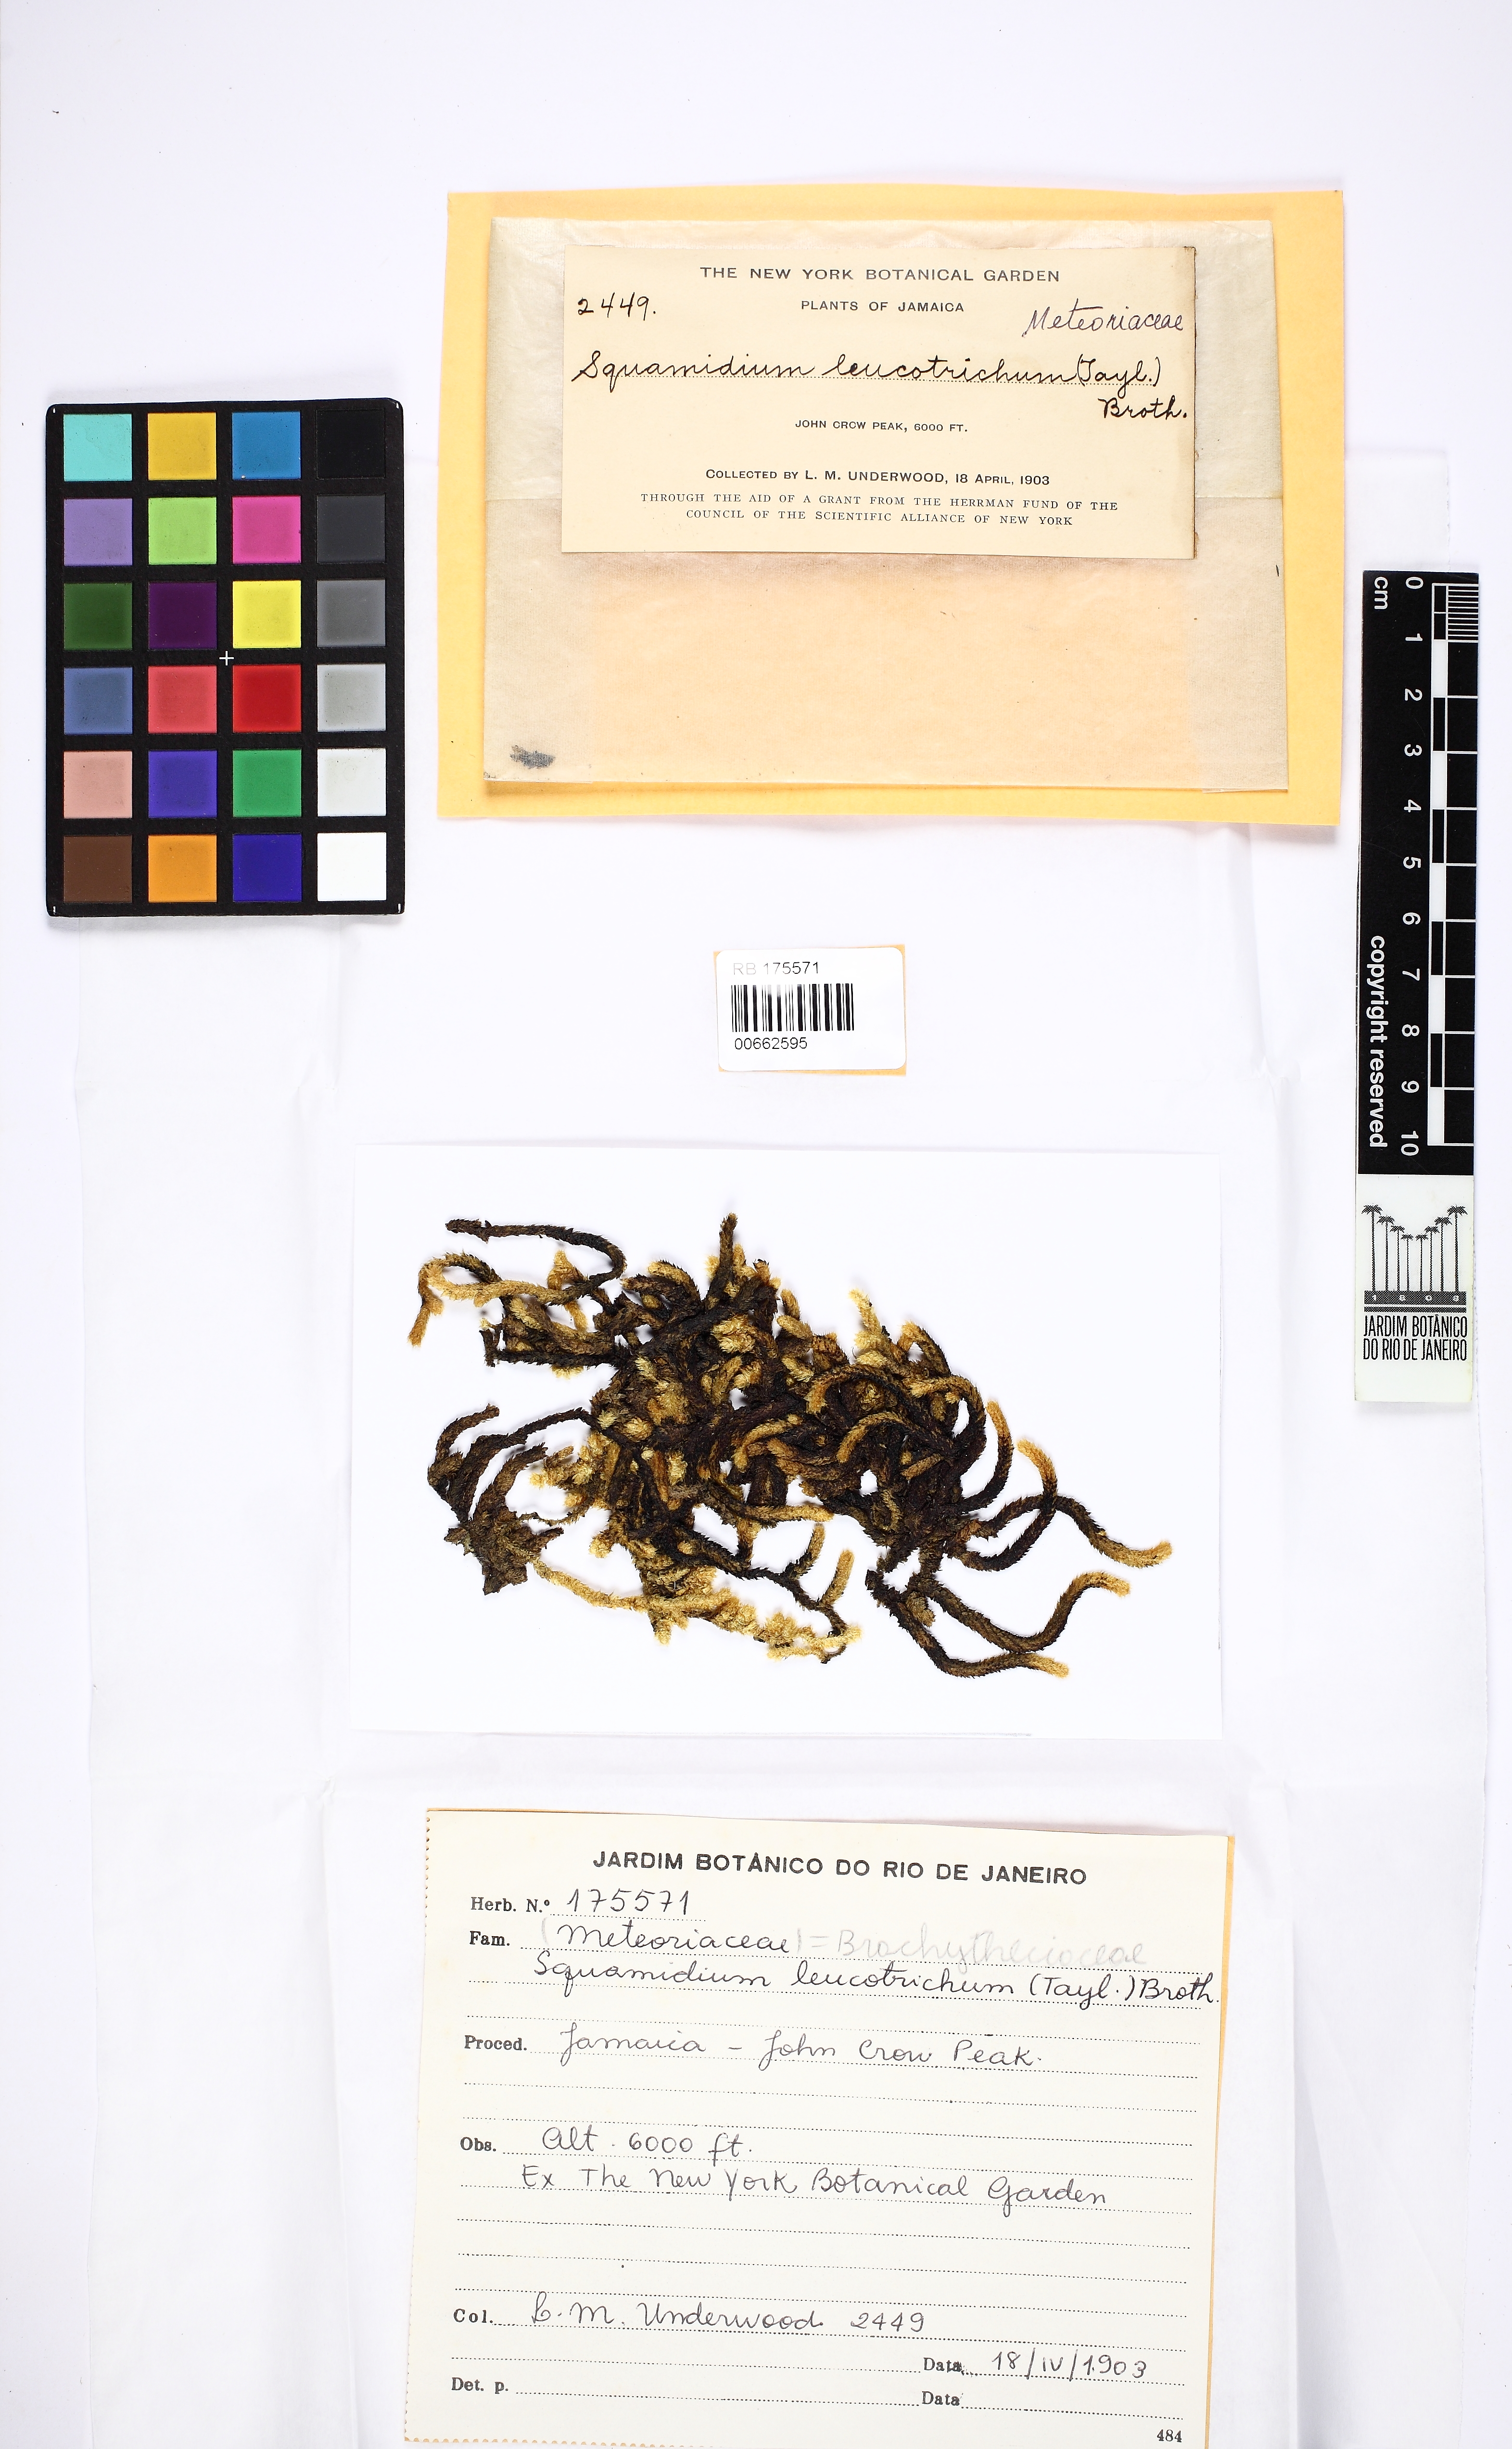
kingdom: Plantae
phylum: Bryophyta
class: Bryopsida
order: Hypnales
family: Brachytheciaceae
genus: Squamidium
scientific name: Squamidium leucotrichum
